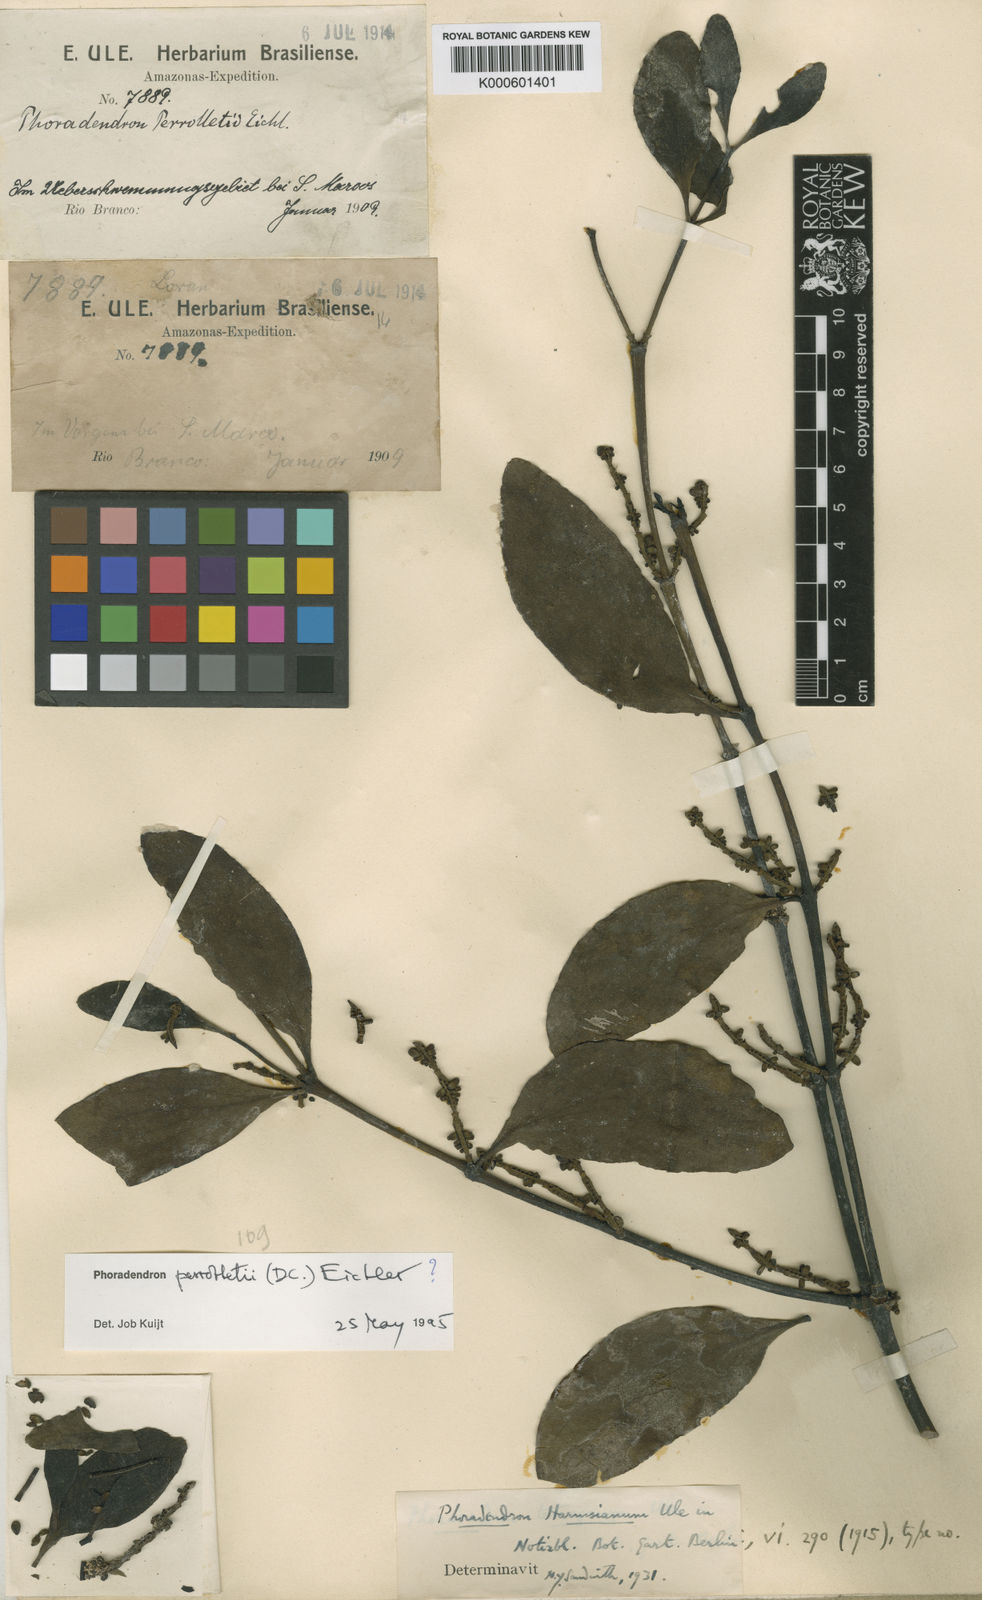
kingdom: Plantae
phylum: Tracheophyta
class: Magnoliopsida
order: Santalales
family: Viscaceae
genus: Phoradendron
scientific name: Phoradendron perrottetii
